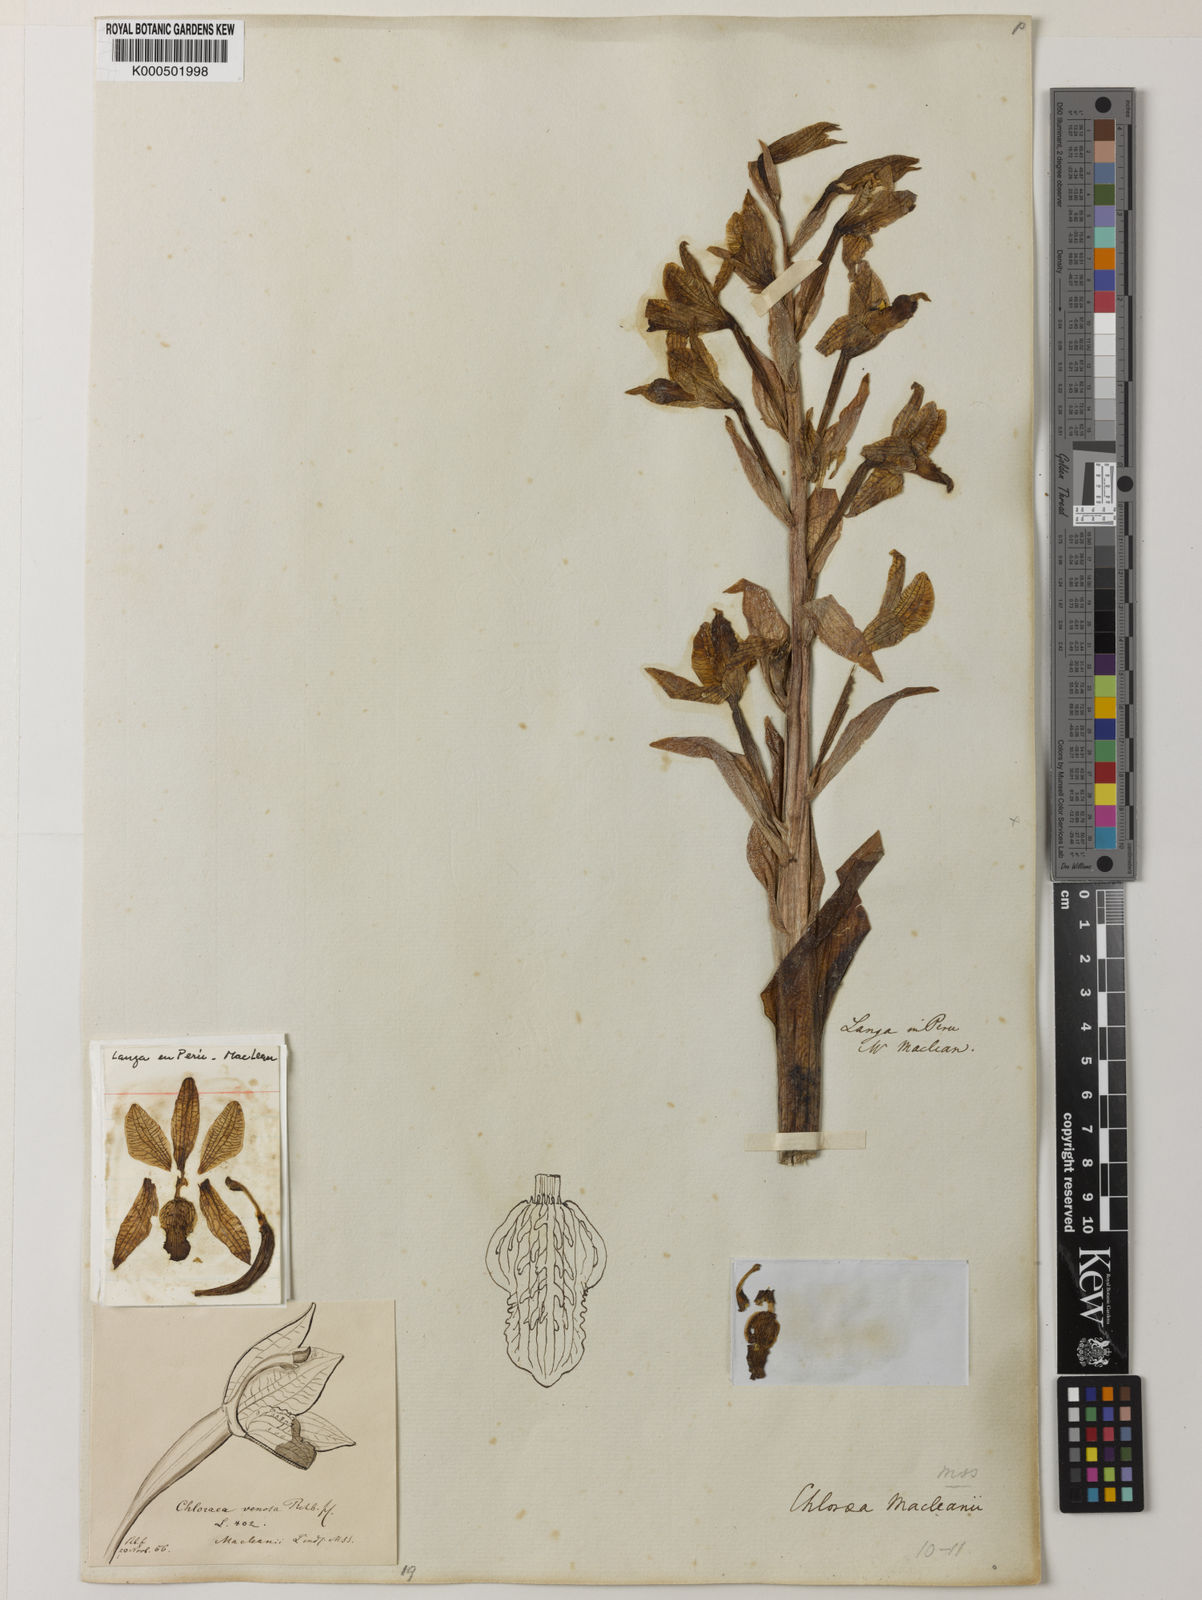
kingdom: Plantae
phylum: Tracheophyta
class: Liliopsida
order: Asparagales
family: Orchidaceae
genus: Chloraea
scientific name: Chloraea
